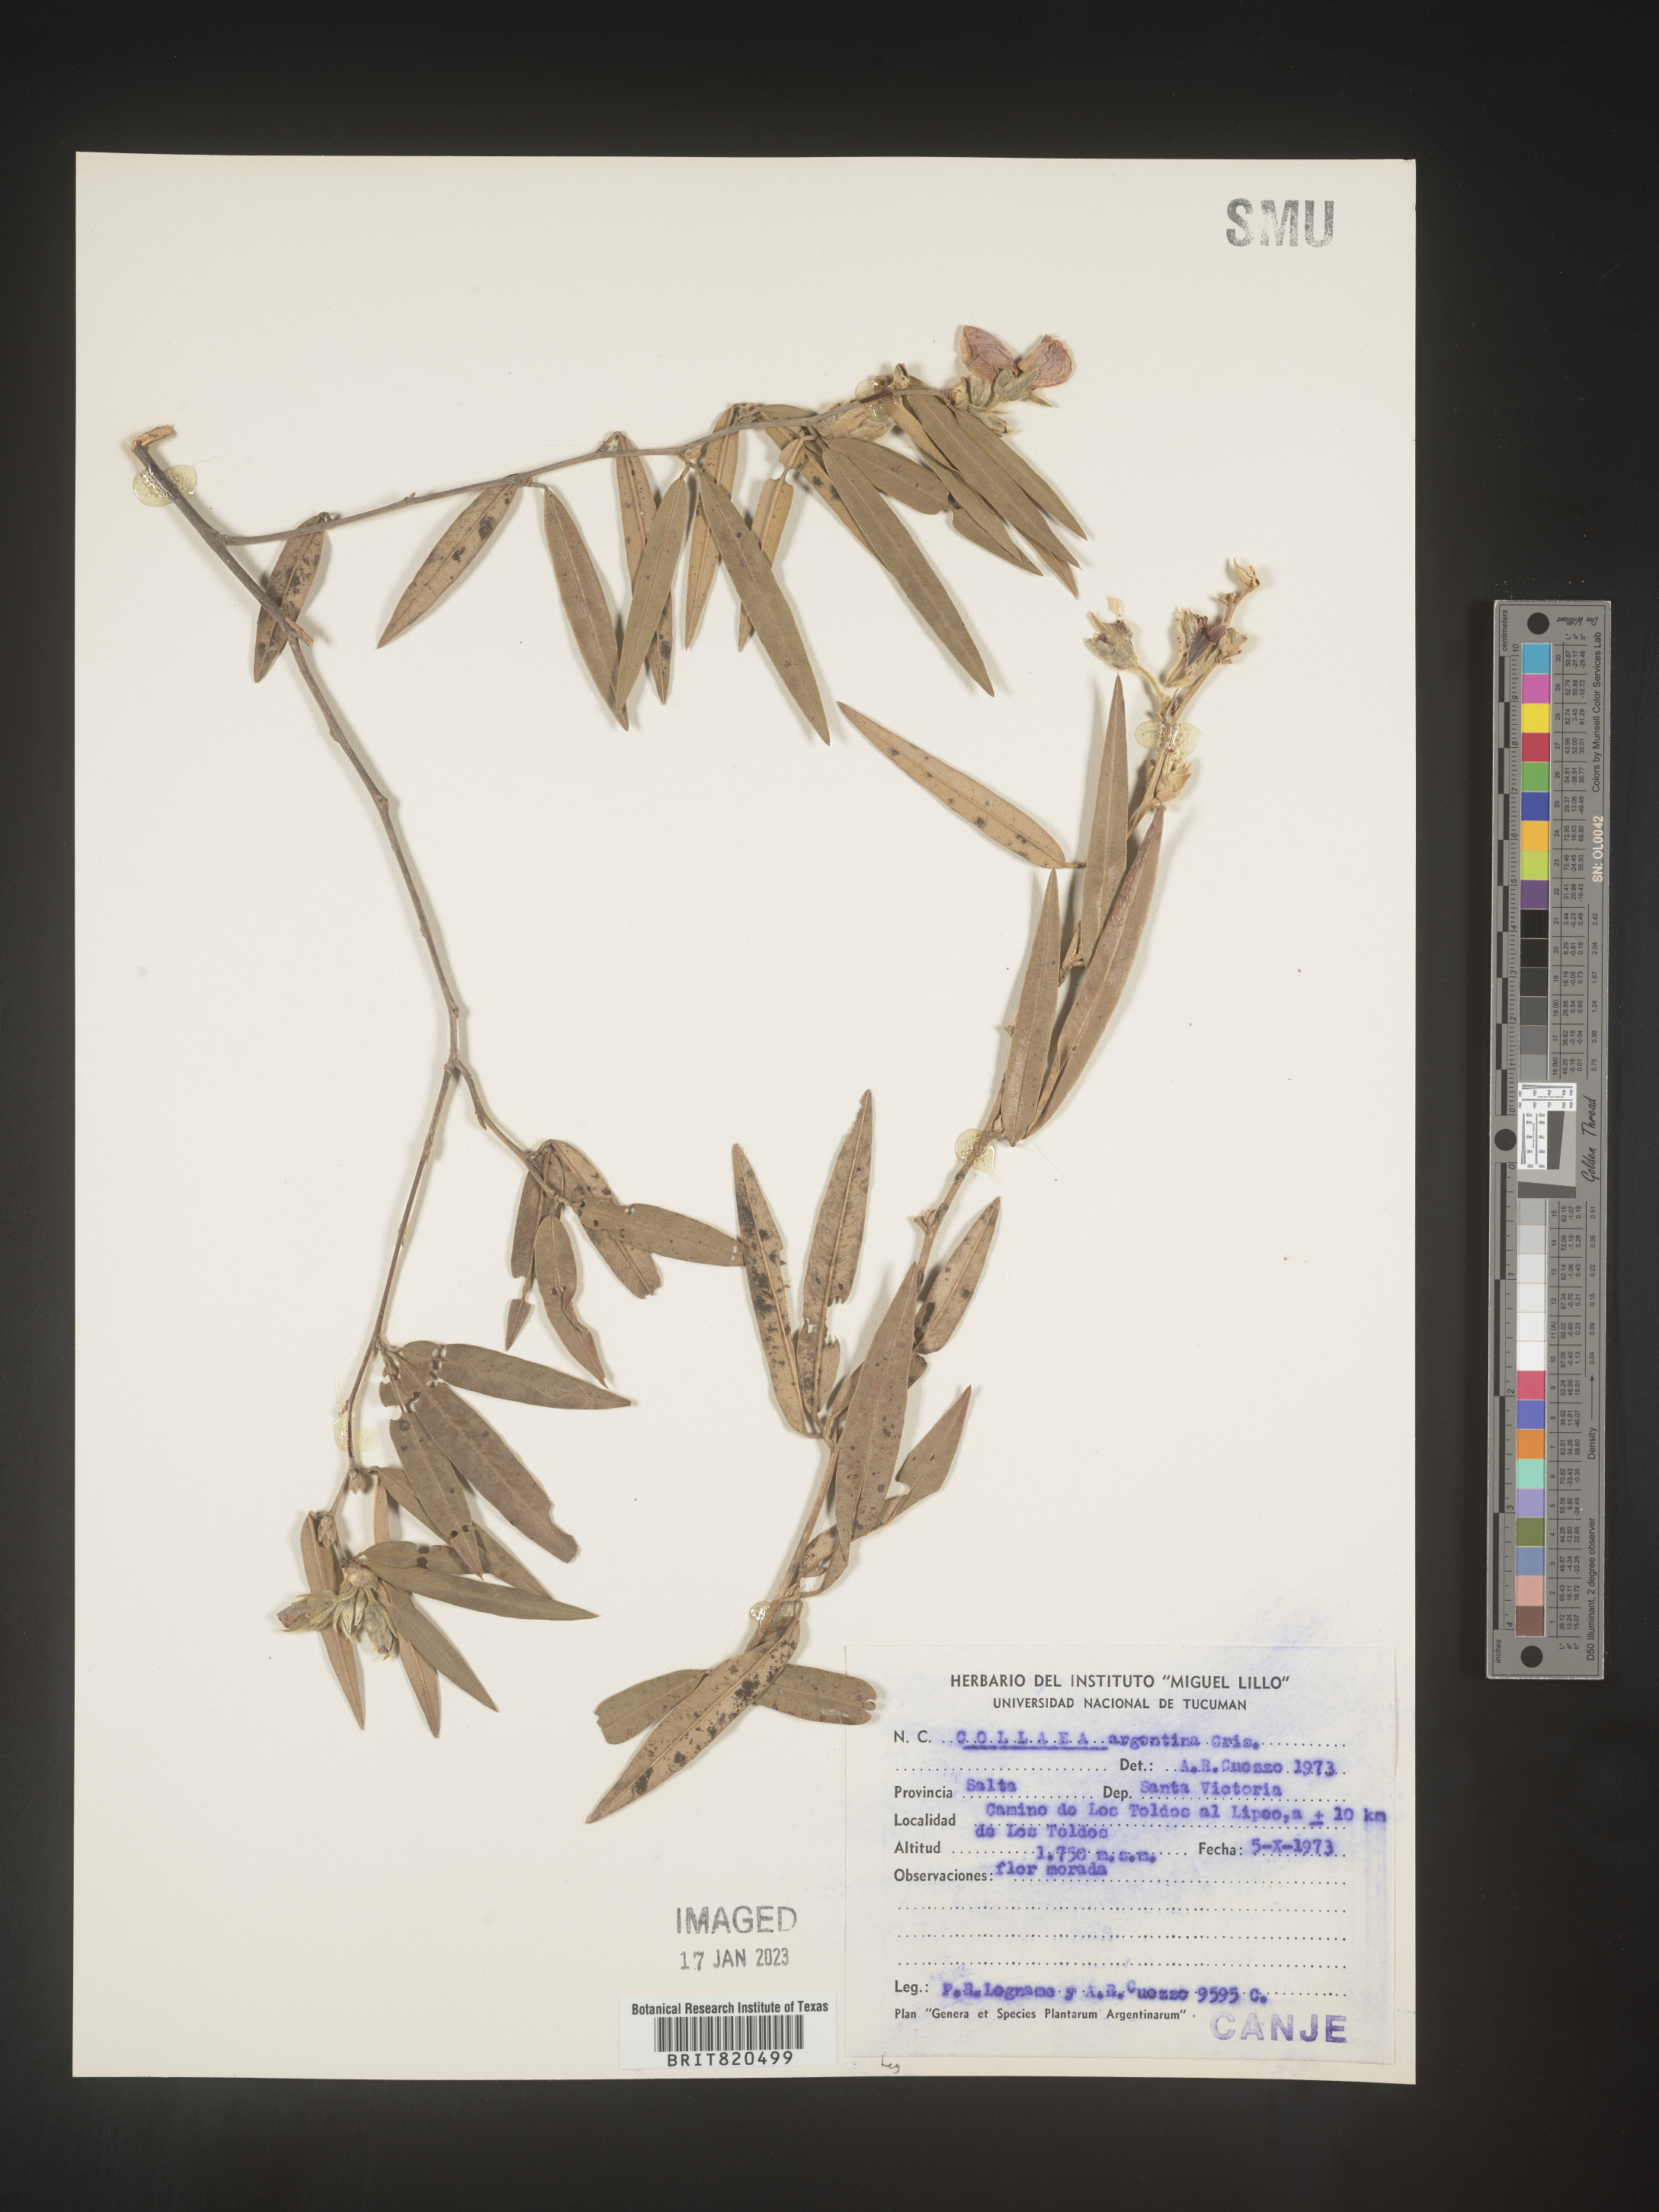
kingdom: Plantae
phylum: Tracheophyta
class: Magnoliopsida
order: Fabales
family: Fabaceae
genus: Galactia
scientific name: Galactia
